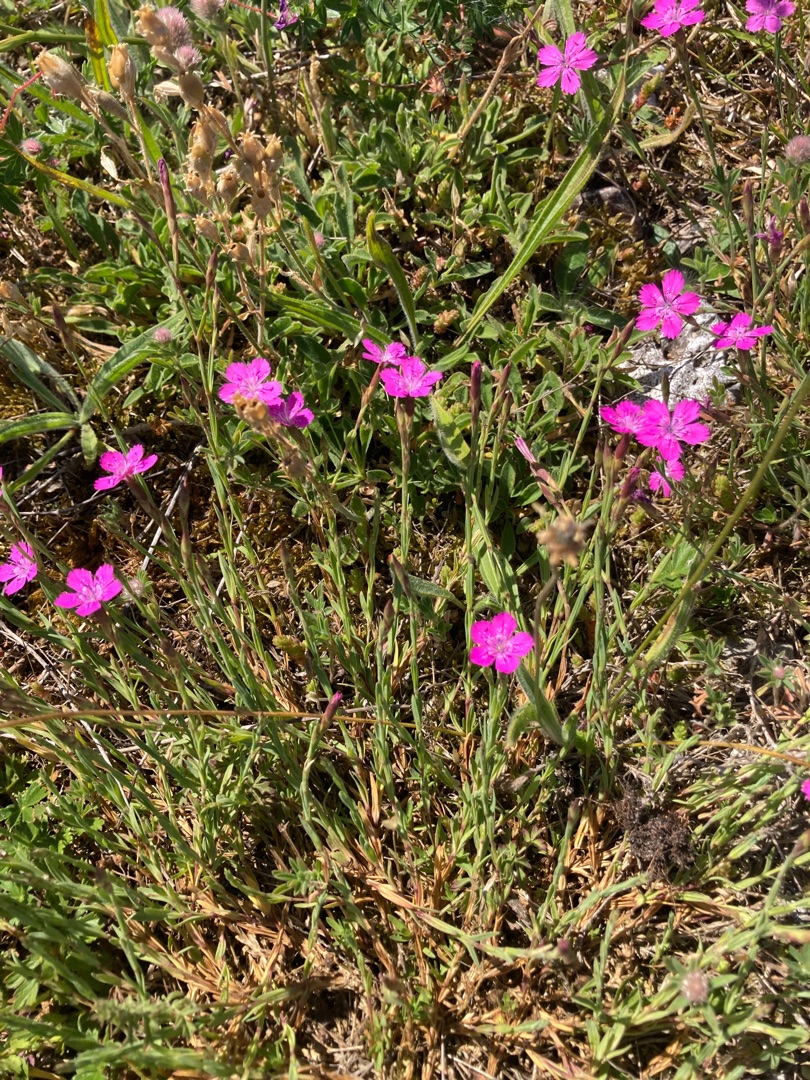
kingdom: Plantae
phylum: Tracheophyta
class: Magnoliopsida
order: Caryophyllales
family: Caryophyllaceae
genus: Dianthus
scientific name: Dianthus deltoides
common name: Bakke-nellike
